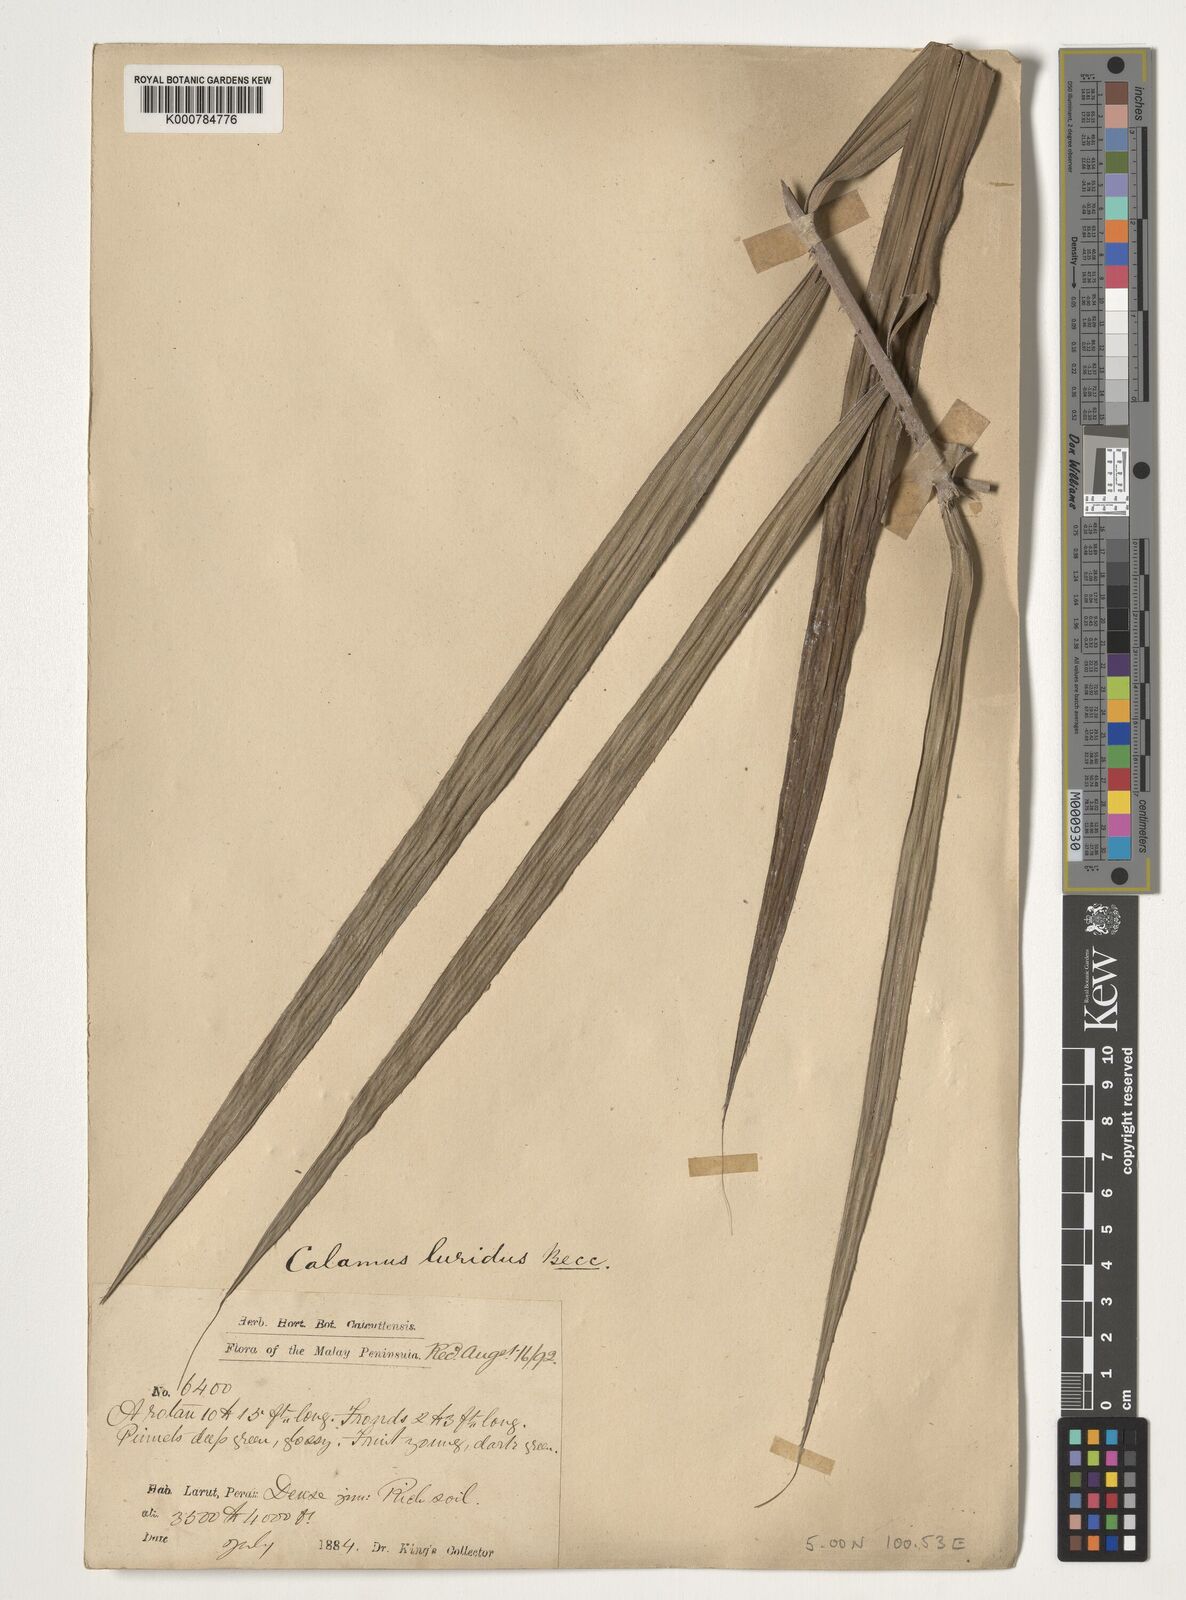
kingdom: Plantae
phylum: Tracheophyta
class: Liliopsida
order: Arecales
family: Arecaceae
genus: Calamus
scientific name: Calamus micranthus
